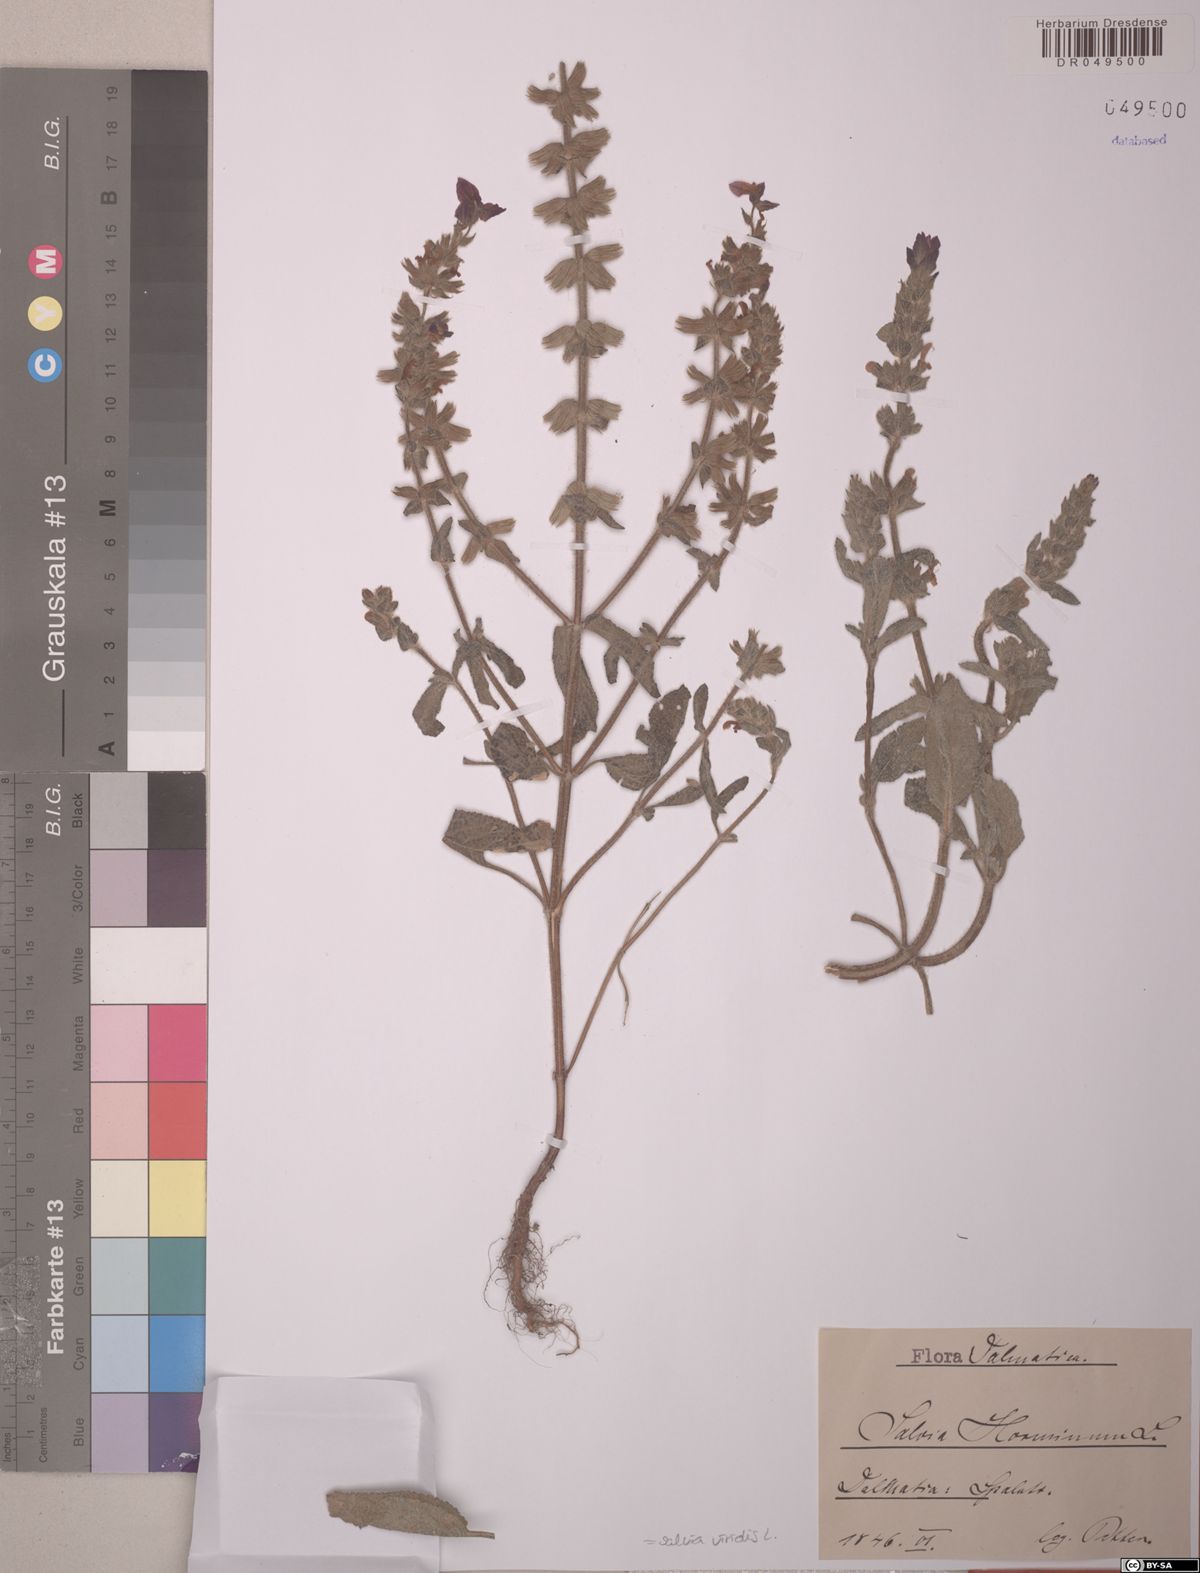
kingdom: Plantae
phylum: Tracheophyta
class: Magnoliopsida
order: Lamiales
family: Lamiaceae
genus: Salvia
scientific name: Salvia viridis
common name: Annual clary
